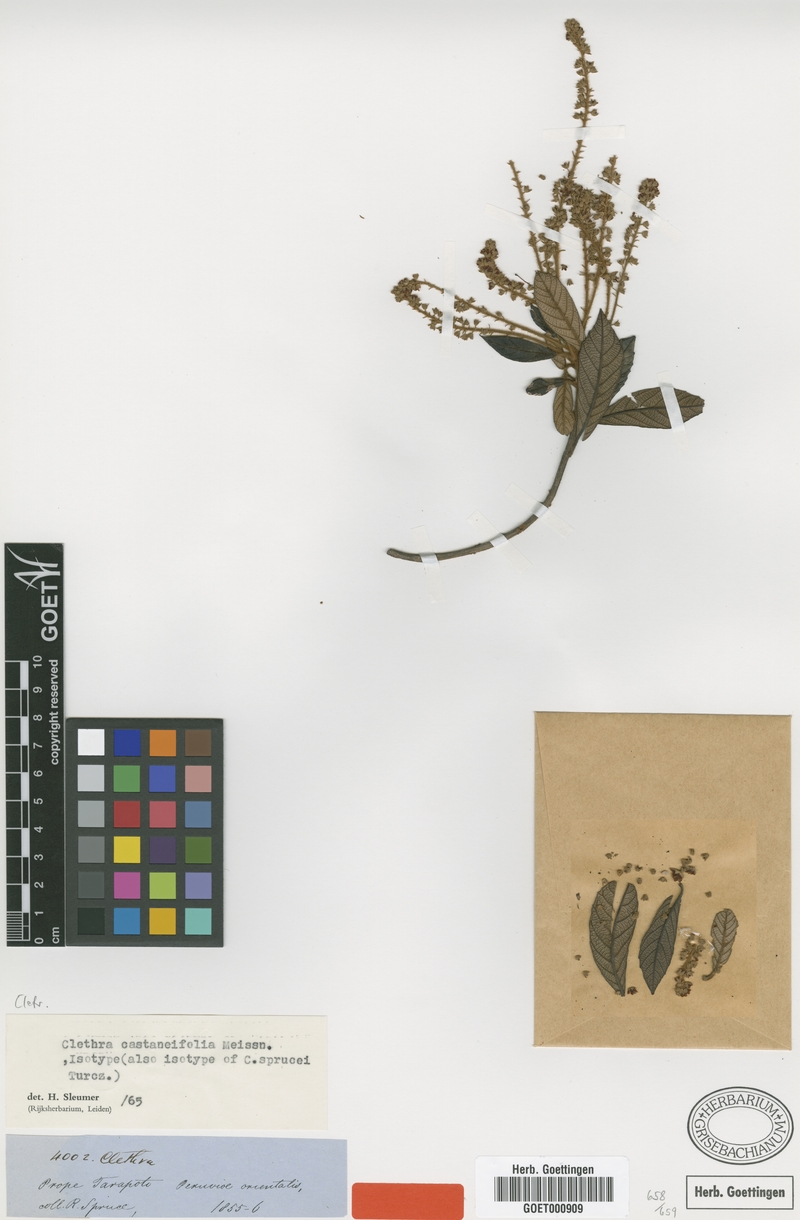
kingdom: Plantae
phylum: Tracheophyta
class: Magnoliopsida
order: Ericales
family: Clethraceae
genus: Clethra
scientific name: Clethra castaneifolia
